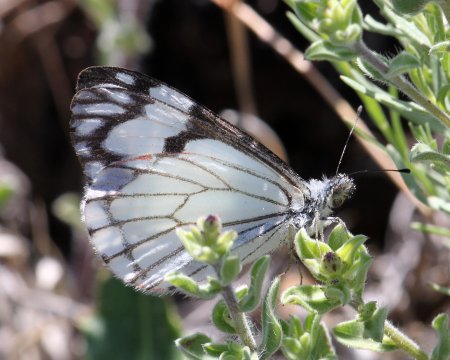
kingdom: Animalia
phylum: Arthropoda
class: Insecta
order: Lepidoptera
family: Pieridae
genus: Neophasia
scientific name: Neophasia menapia
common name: Pine White
